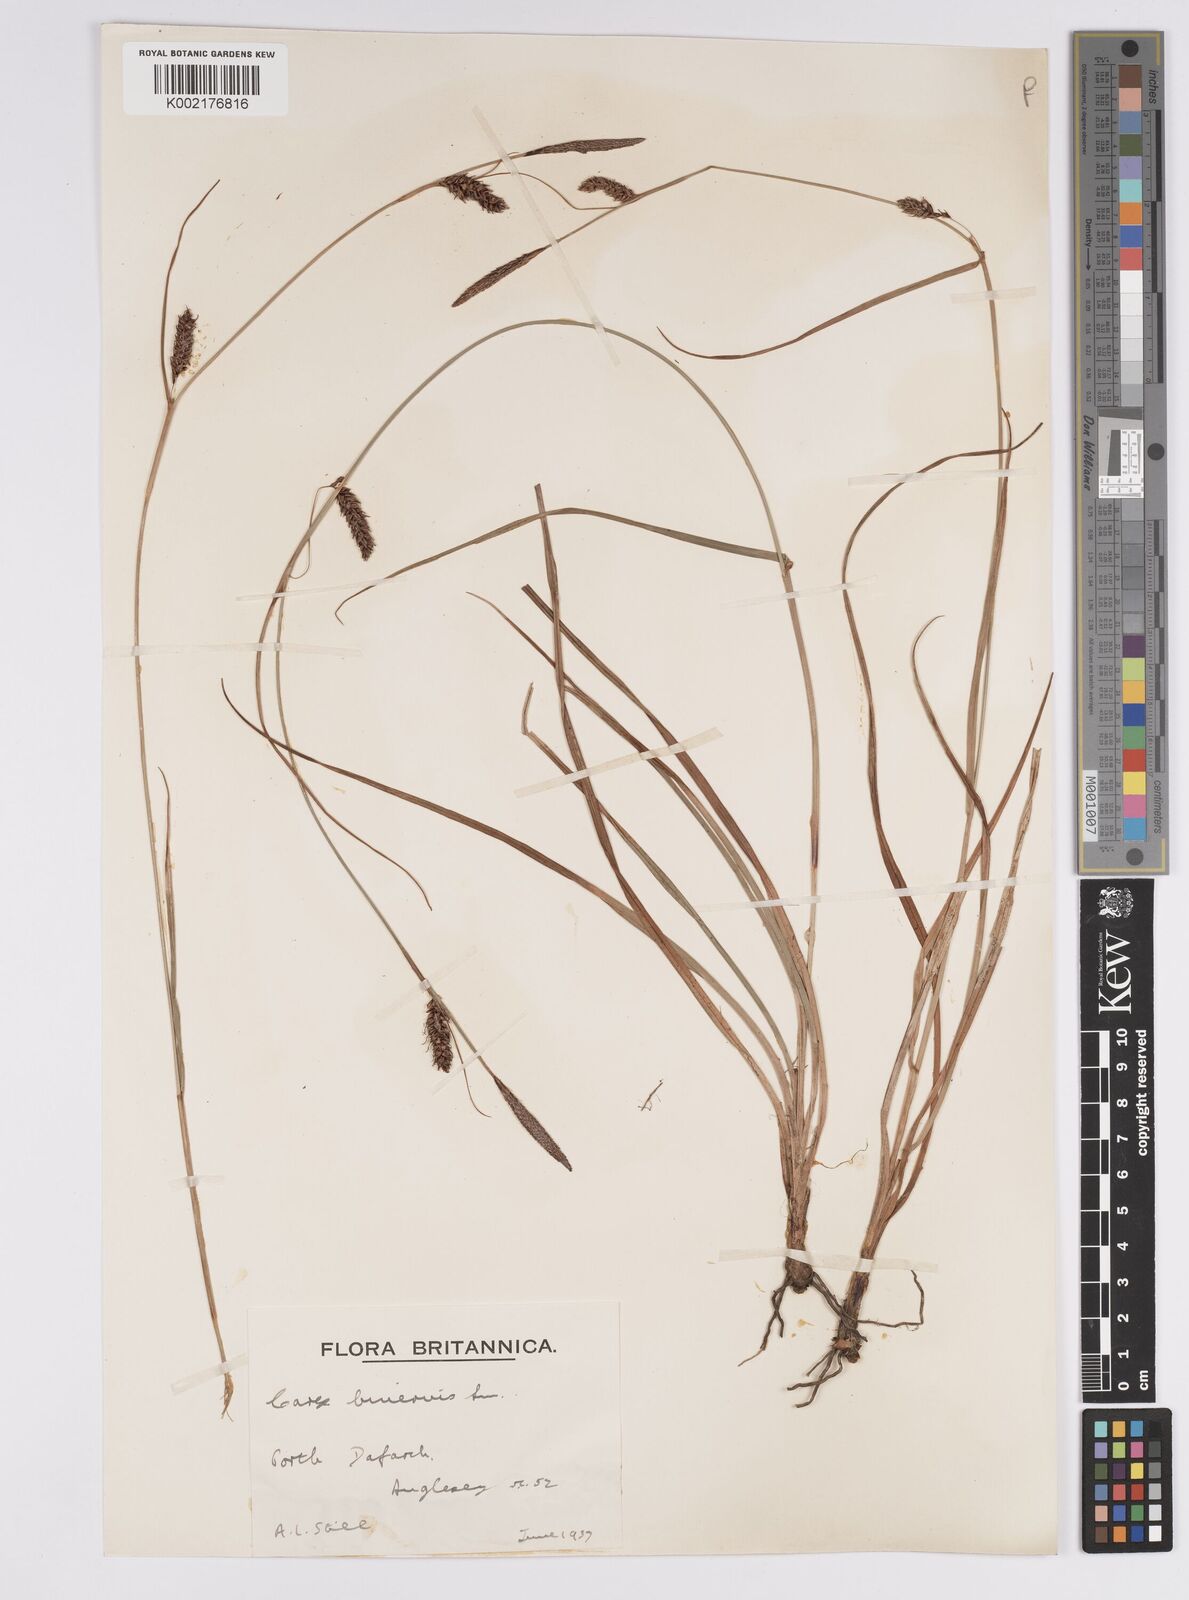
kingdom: Plantae
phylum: Tracheophyta
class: Liliopsida
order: Poales
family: Cyperaceae
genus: Carex
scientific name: Carex binervis
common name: Green-ribbed sedge
